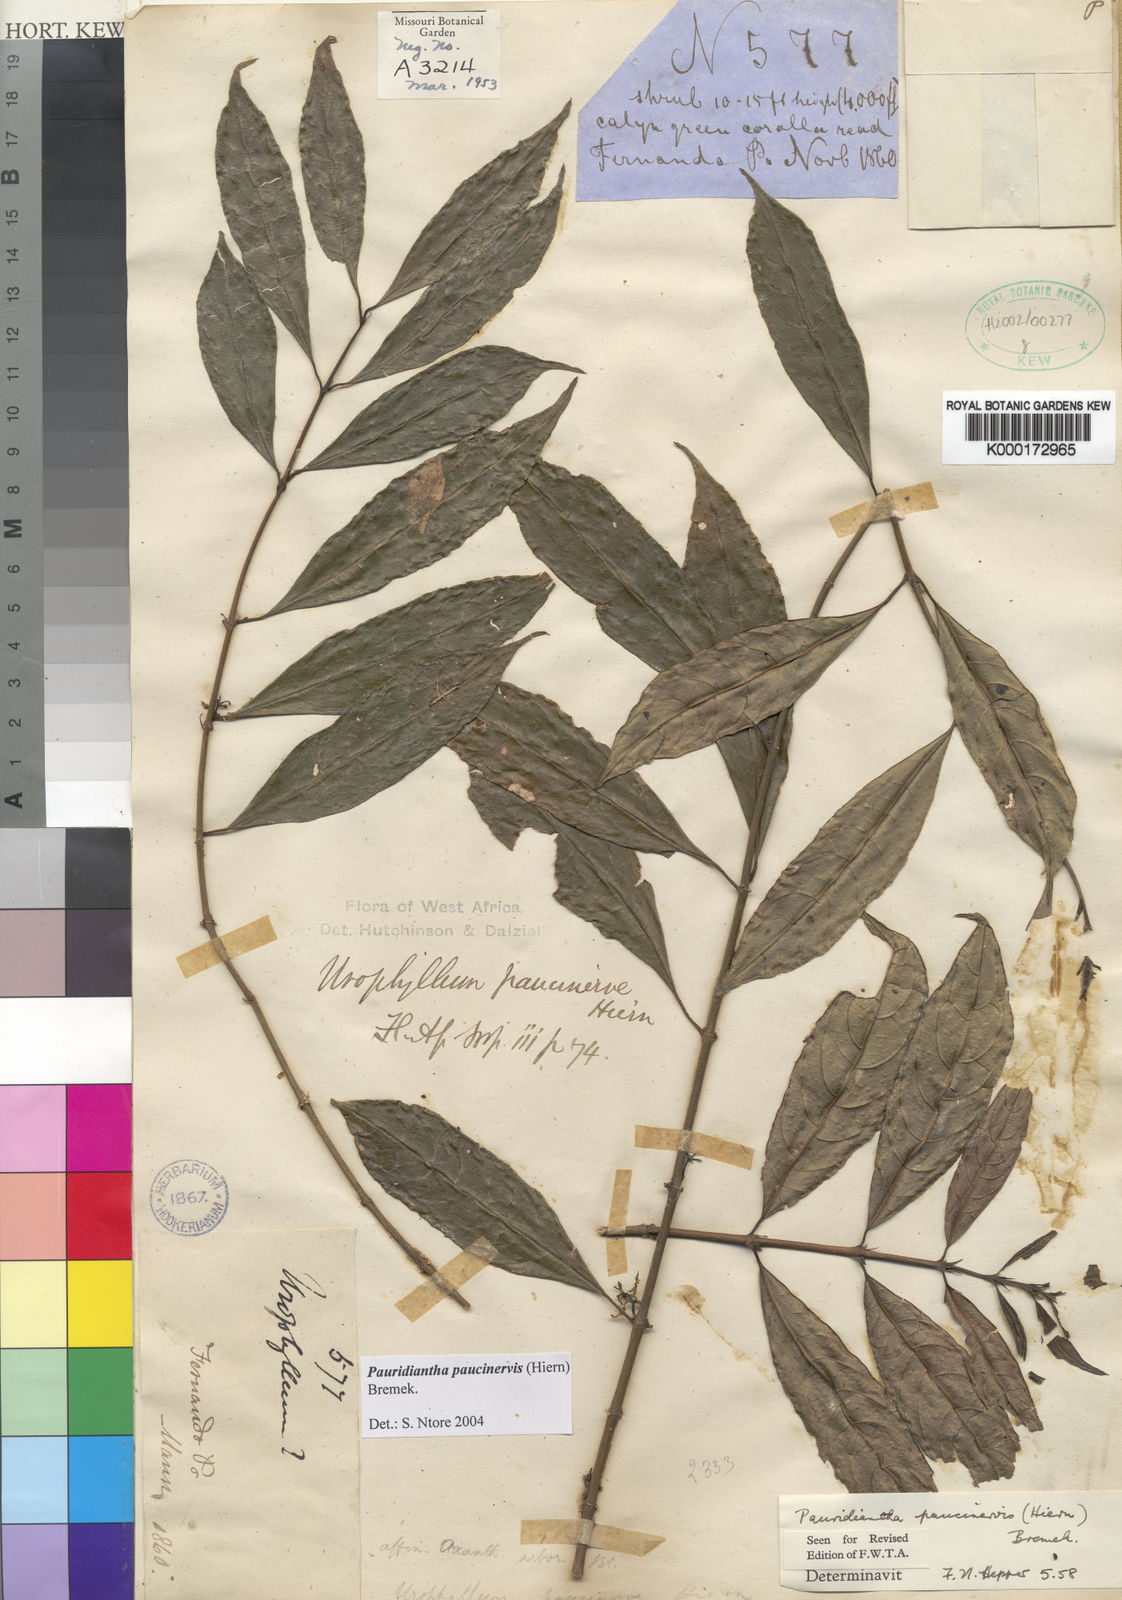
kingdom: Plantae
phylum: Tracheophyta
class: Magnoliopsida
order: Gentianales
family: Rubiaceae
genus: Pauridiantha
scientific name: Pauridiantha paucinervis
